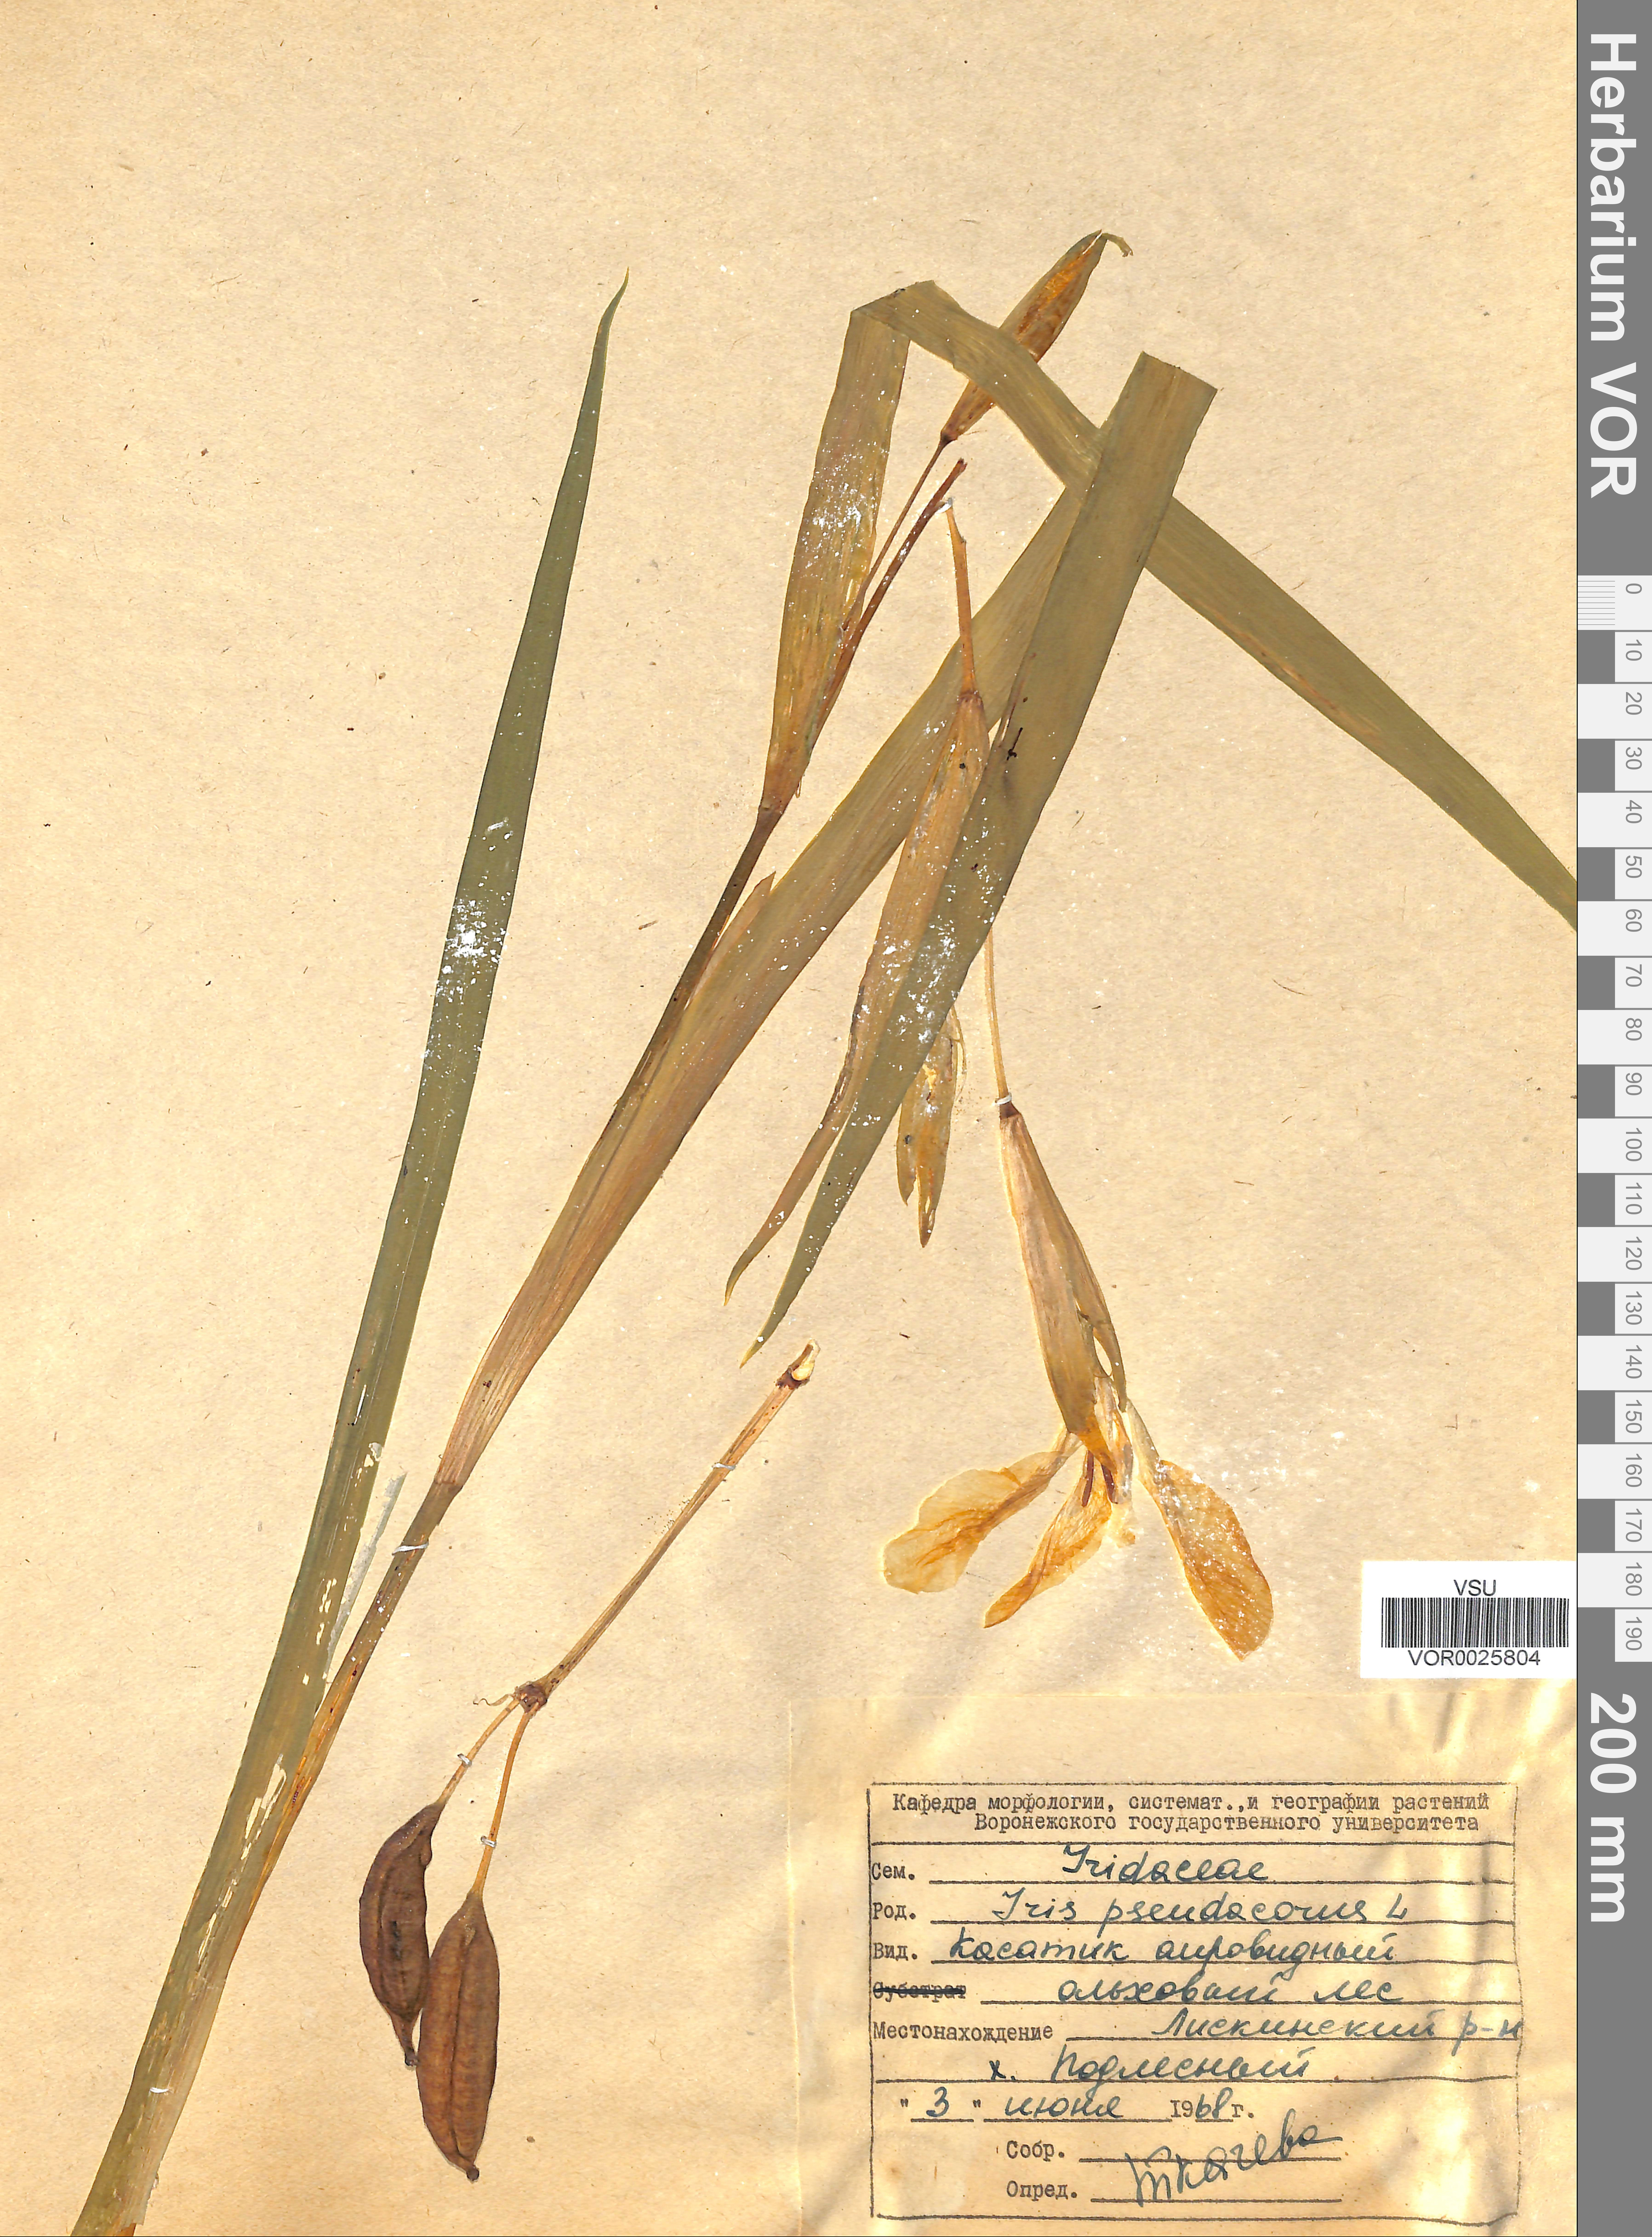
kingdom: Plantae
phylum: Tracheophyta
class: Liliopsida
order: Asparagales
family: Iridaceae
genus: Iris
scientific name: Iris pseudacorus
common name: Yellow flag
